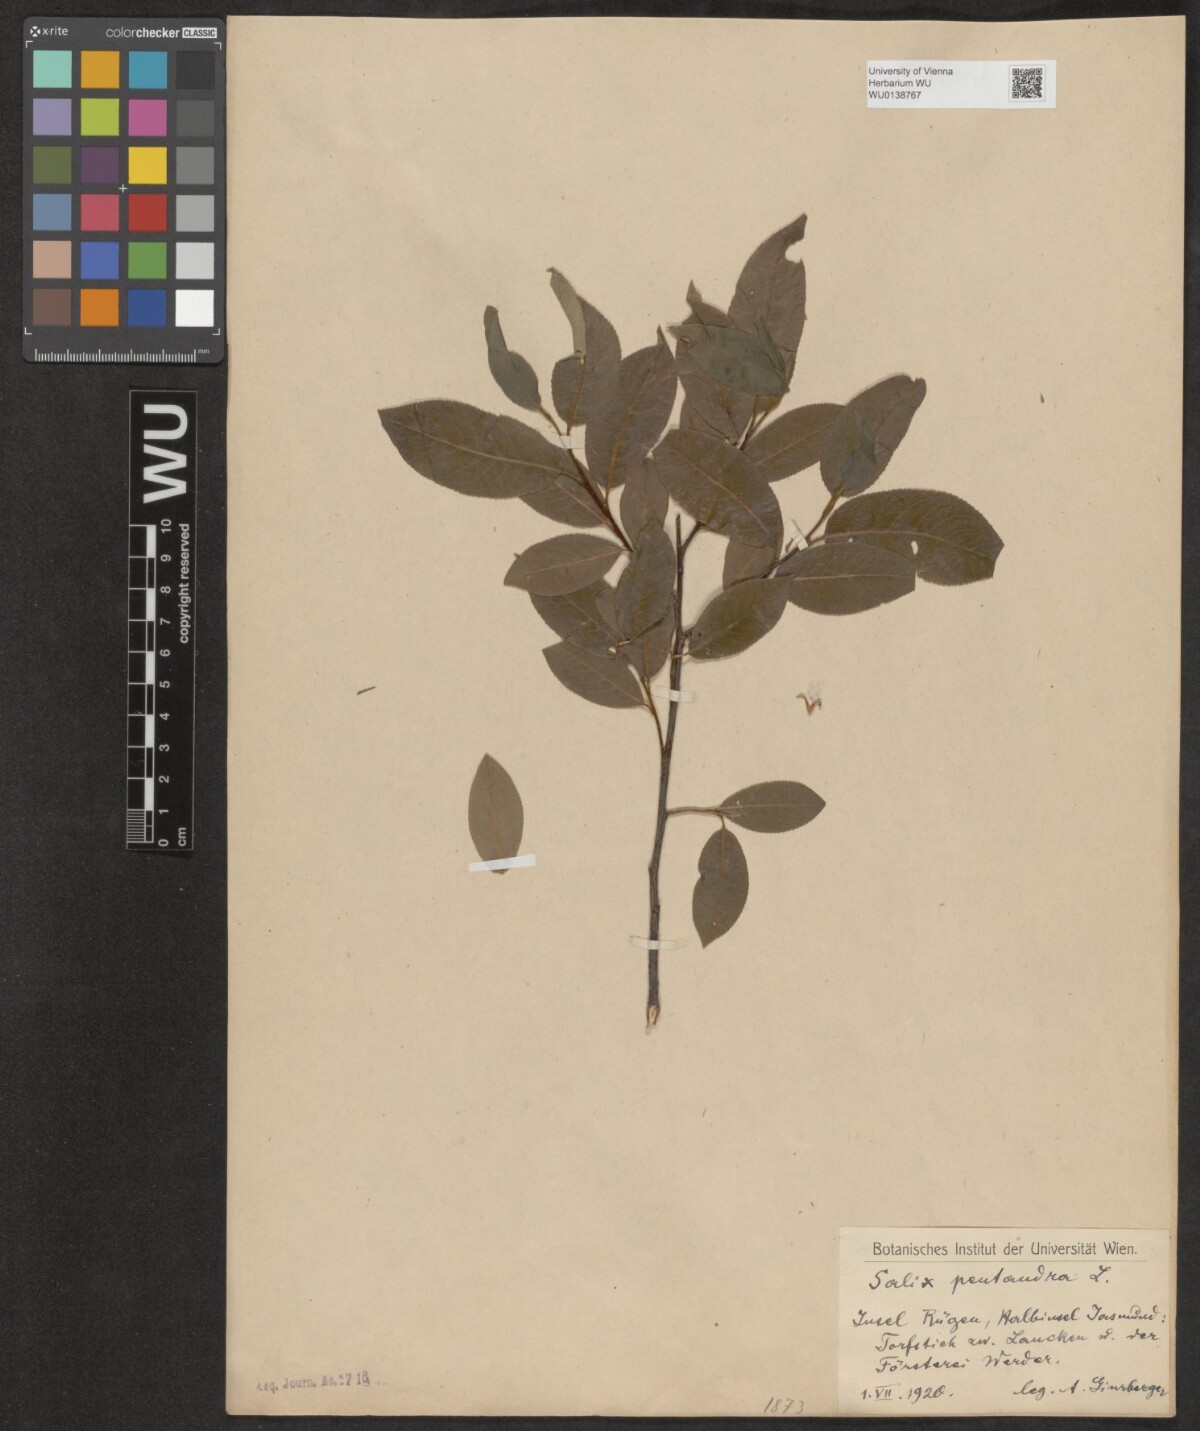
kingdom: Plantae
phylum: Tracheophyta
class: Magnoliopsida
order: Malpighiales
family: Salicaceae
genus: Salix
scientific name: Salix pentandra
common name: Bay willow
